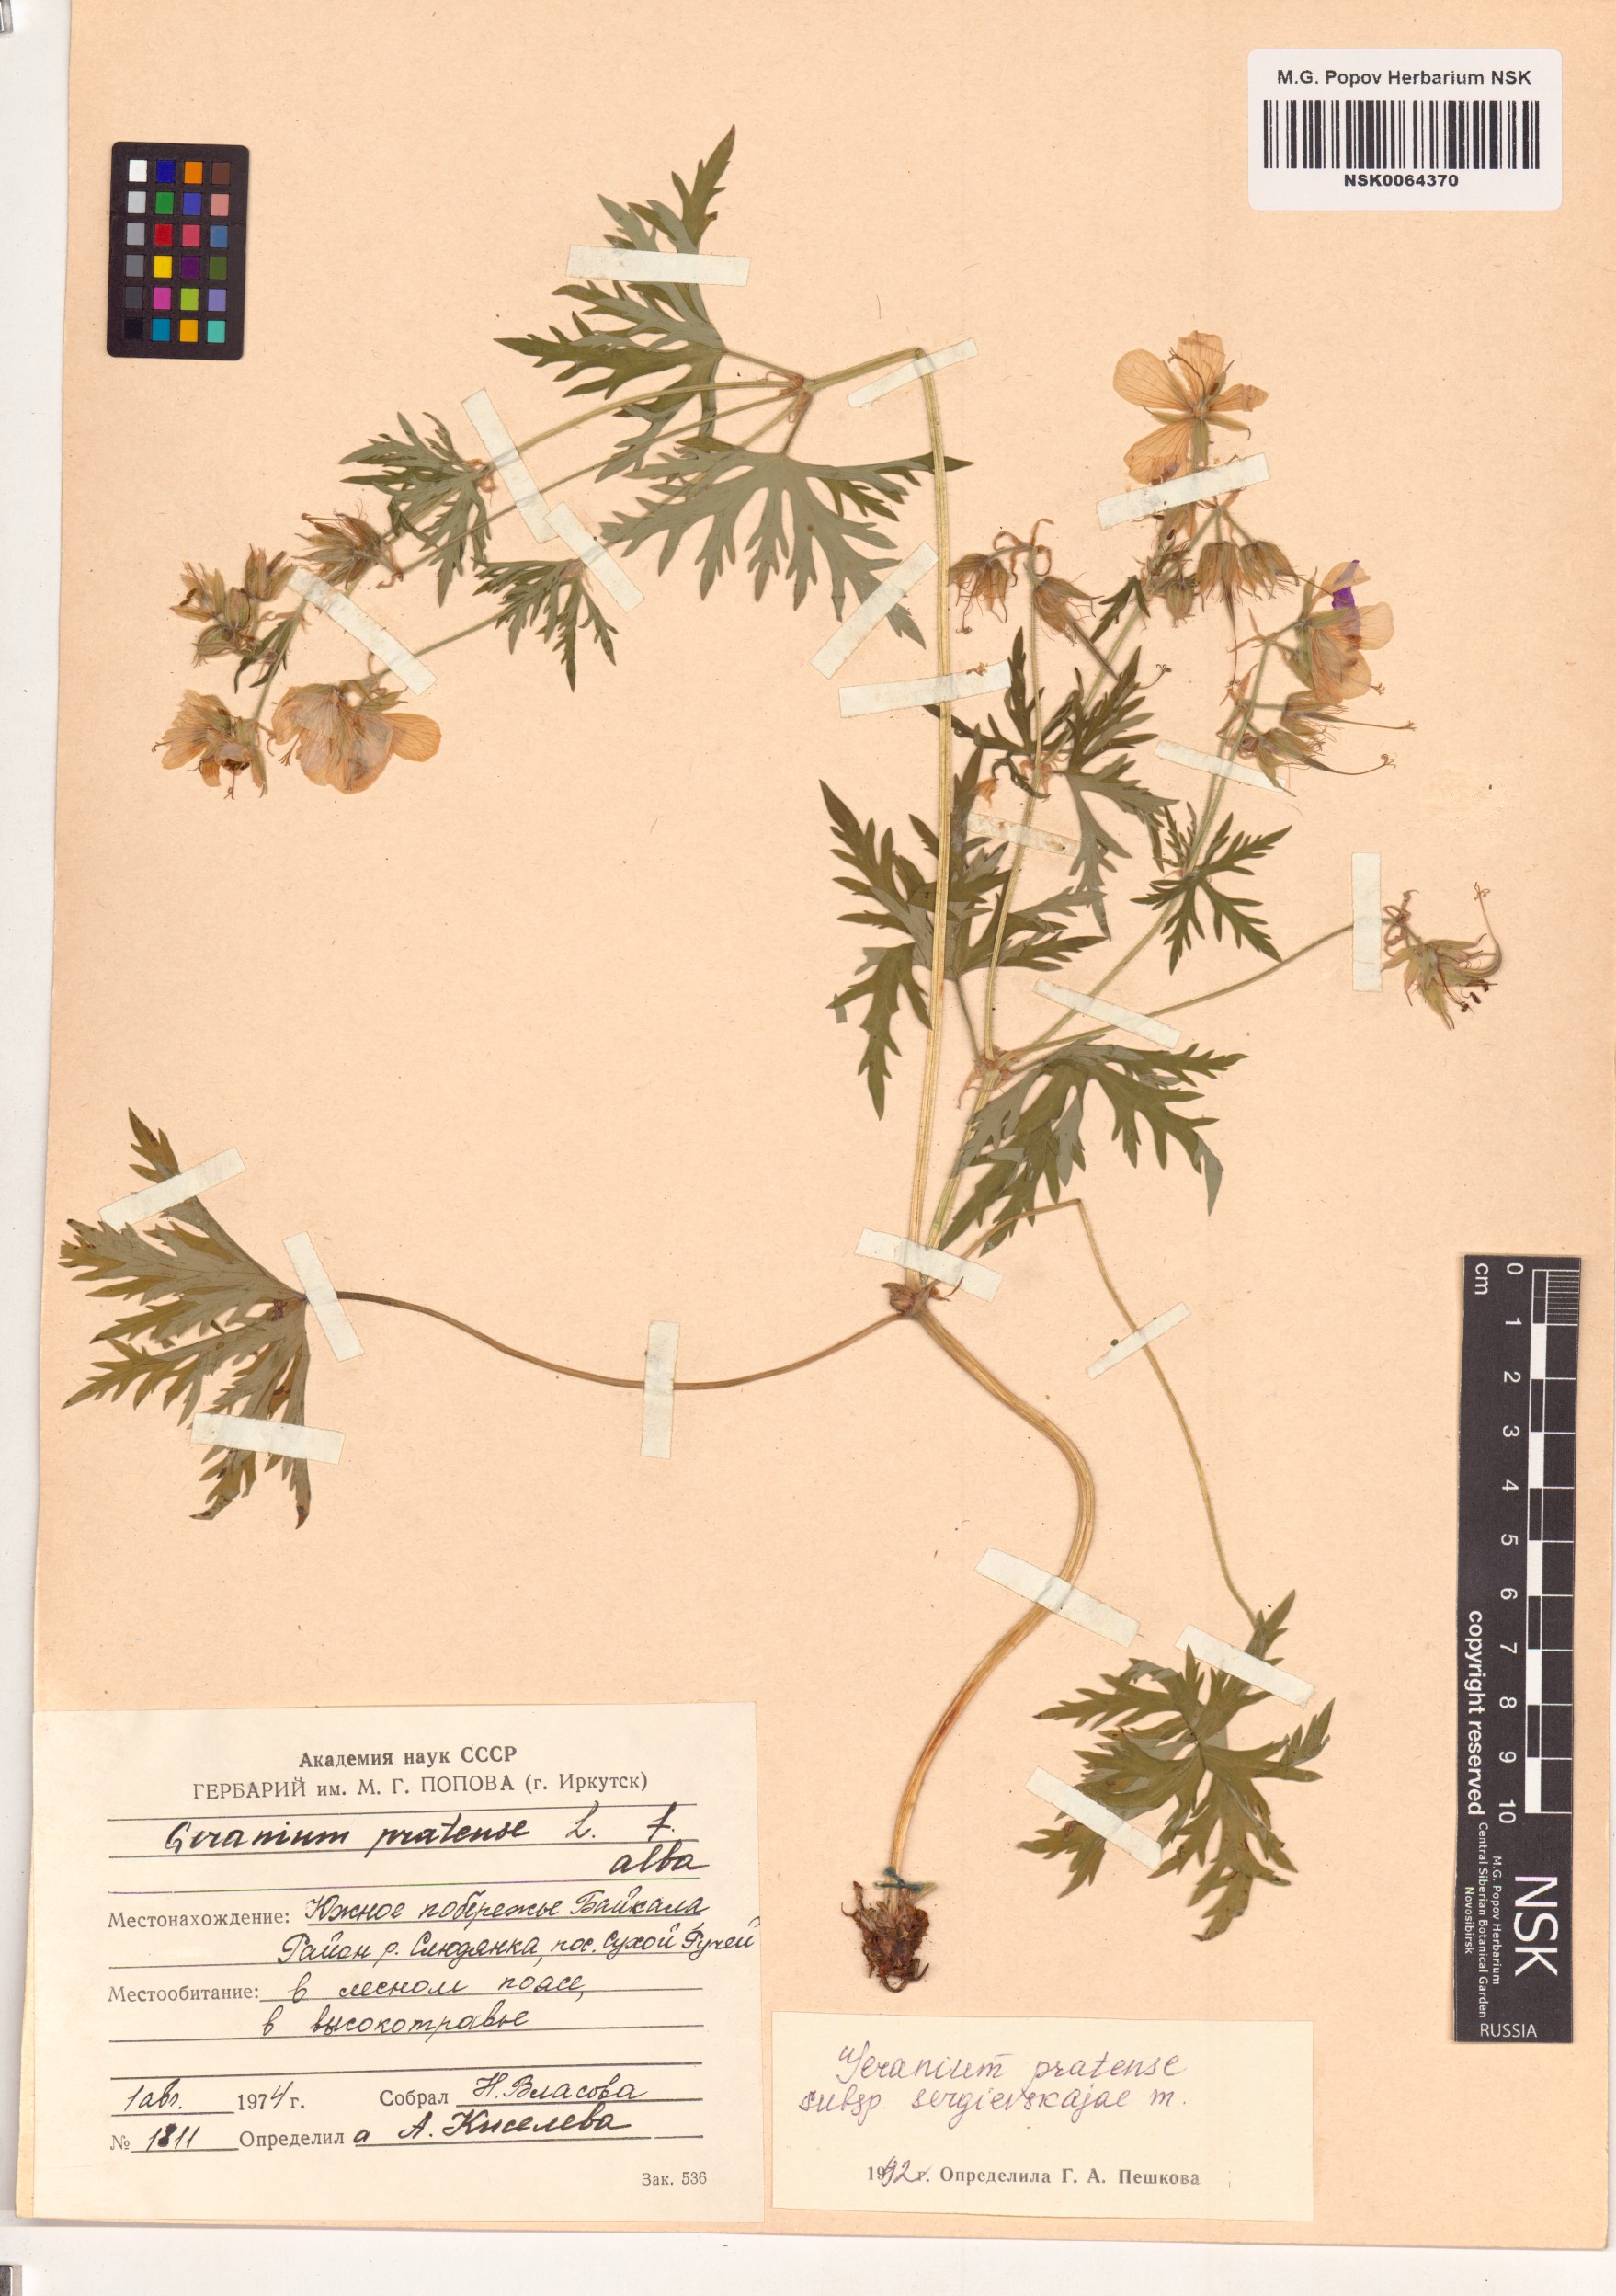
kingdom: Plantae
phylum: Tracheophyta
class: Magnoliopsida
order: Geraniales
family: Geraniaceae
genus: Geranium
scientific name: Geranium pratense
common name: Meadow crane's-bill
